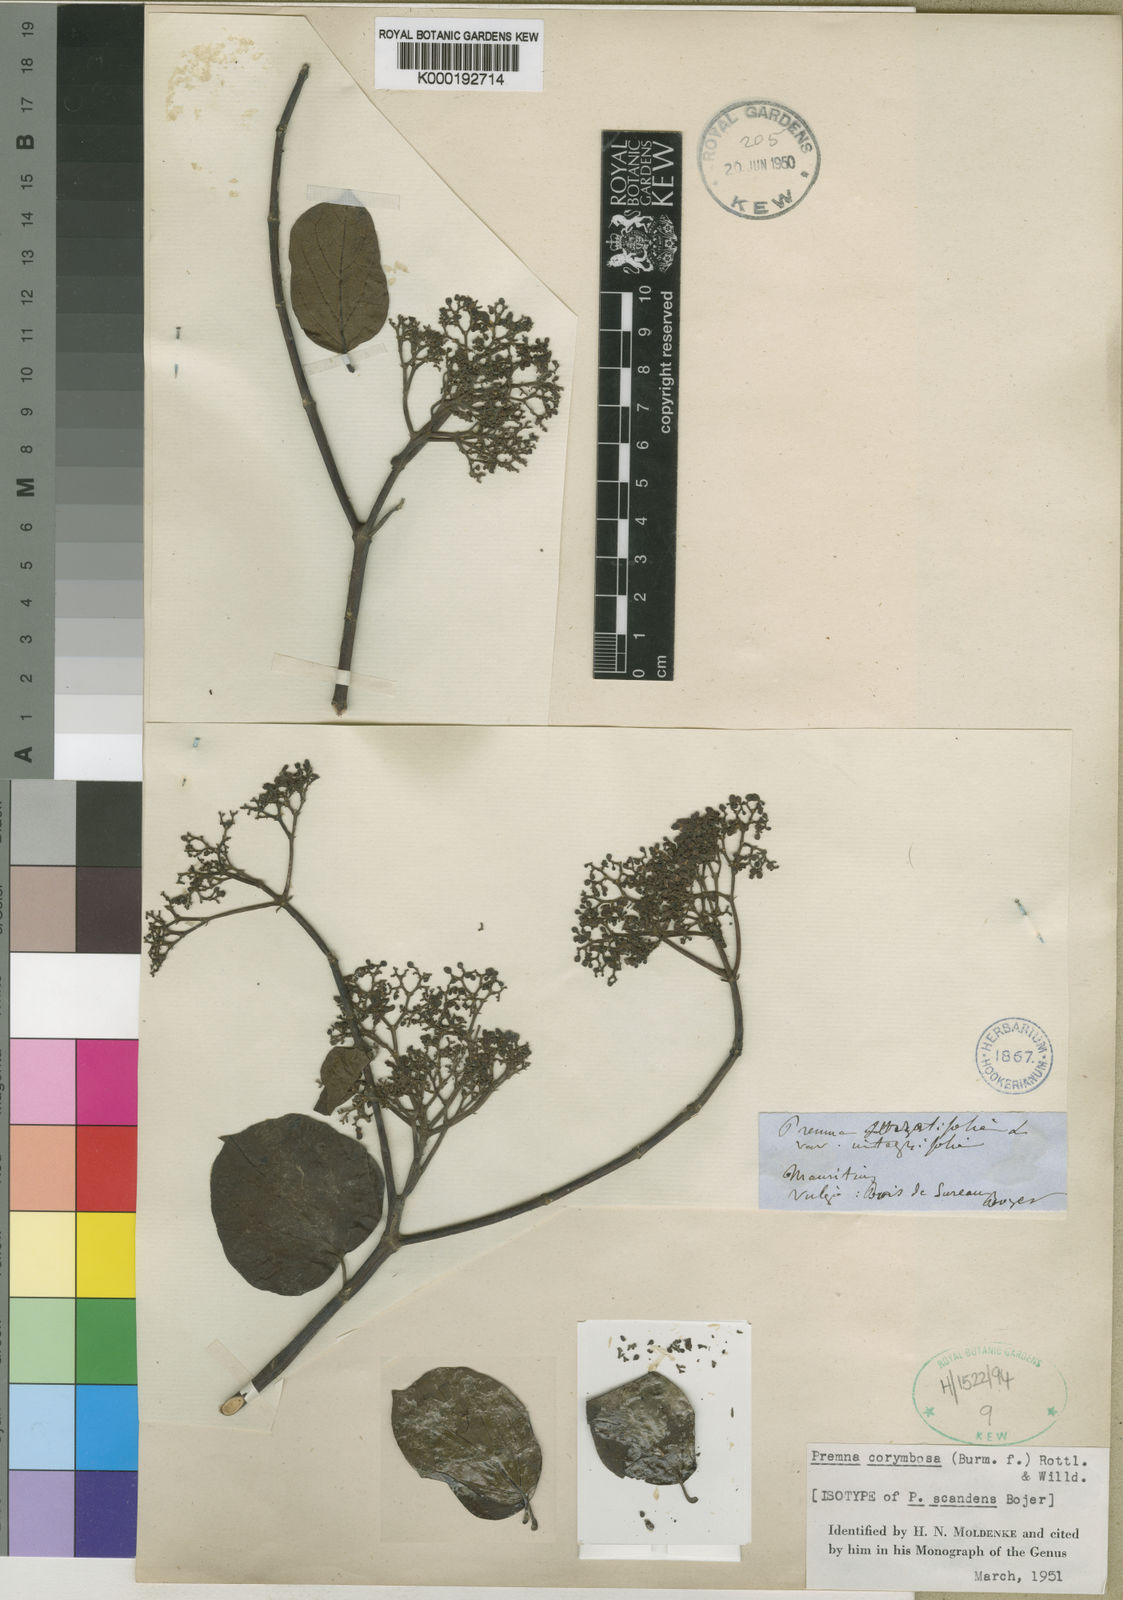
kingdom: Plantae
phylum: Tracheophyta
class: Magnoliopsida
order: Lamiales
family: Lamiaceae
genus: Premna
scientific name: Premna
